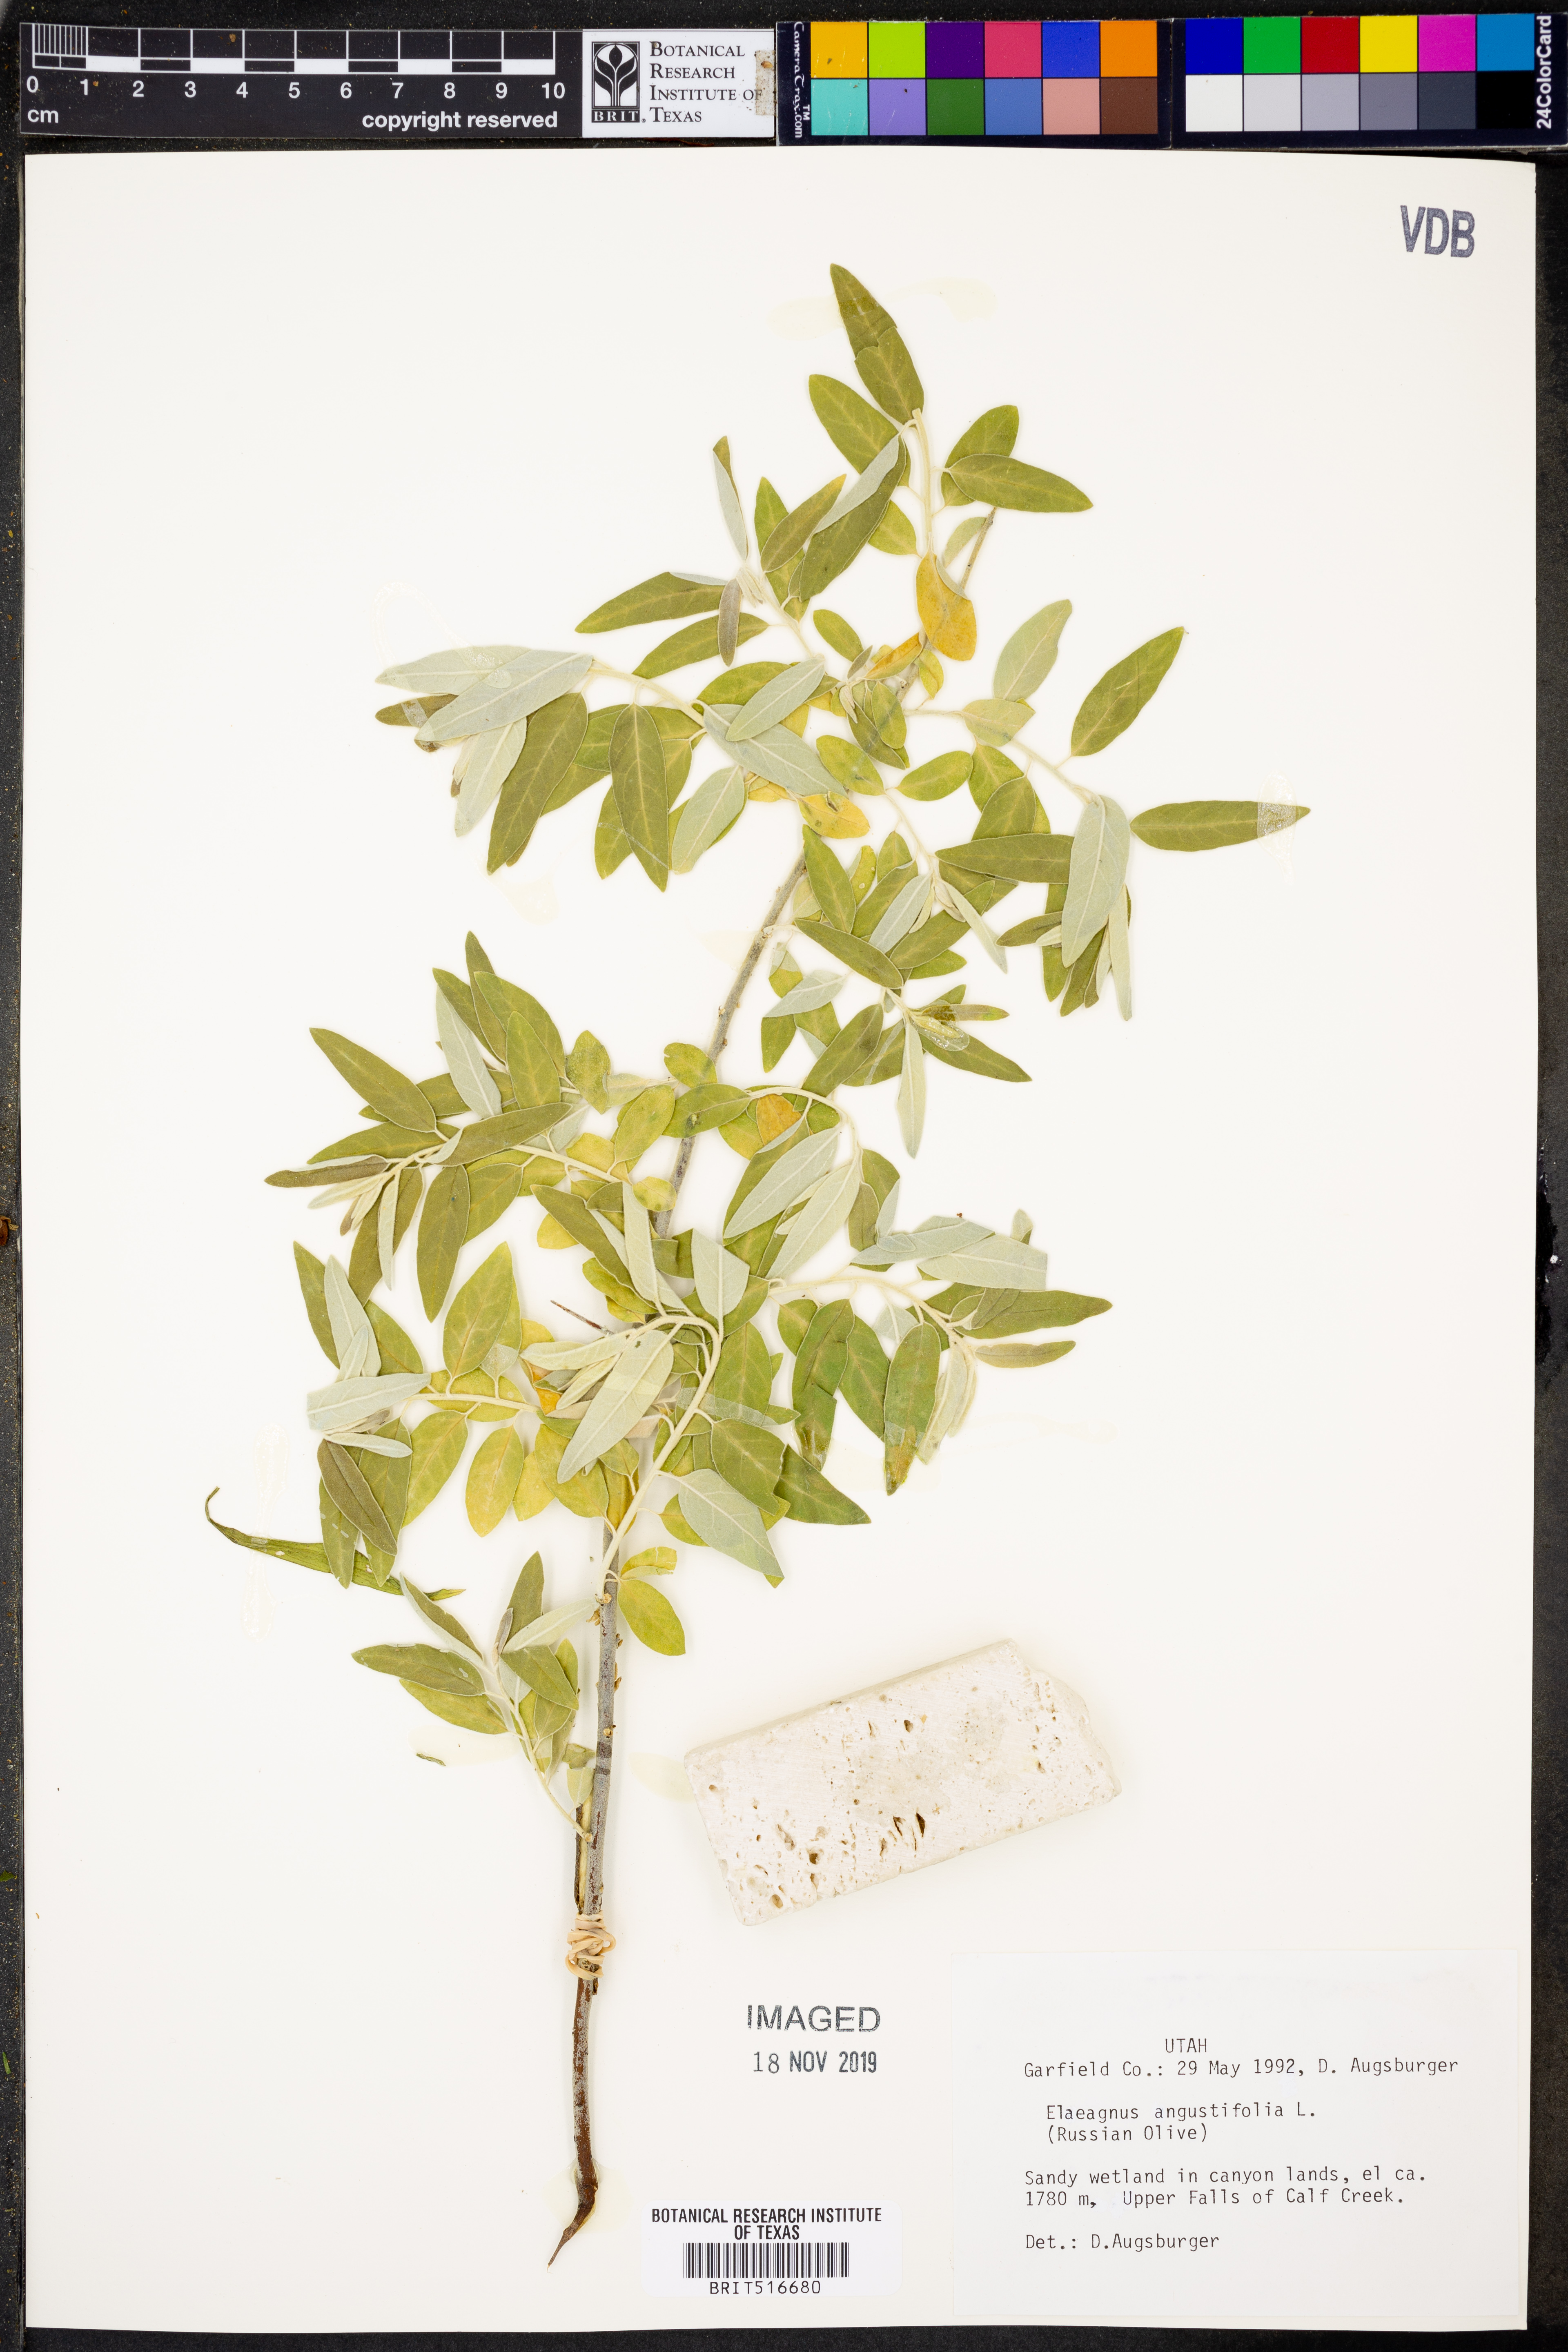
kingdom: Plantae
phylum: Tracheophyta
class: Magnoliopsida
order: Rosales
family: Elaeagnaceae
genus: Elaeagnus
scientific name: Elaeagnus angustifolia
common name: Russian olive
